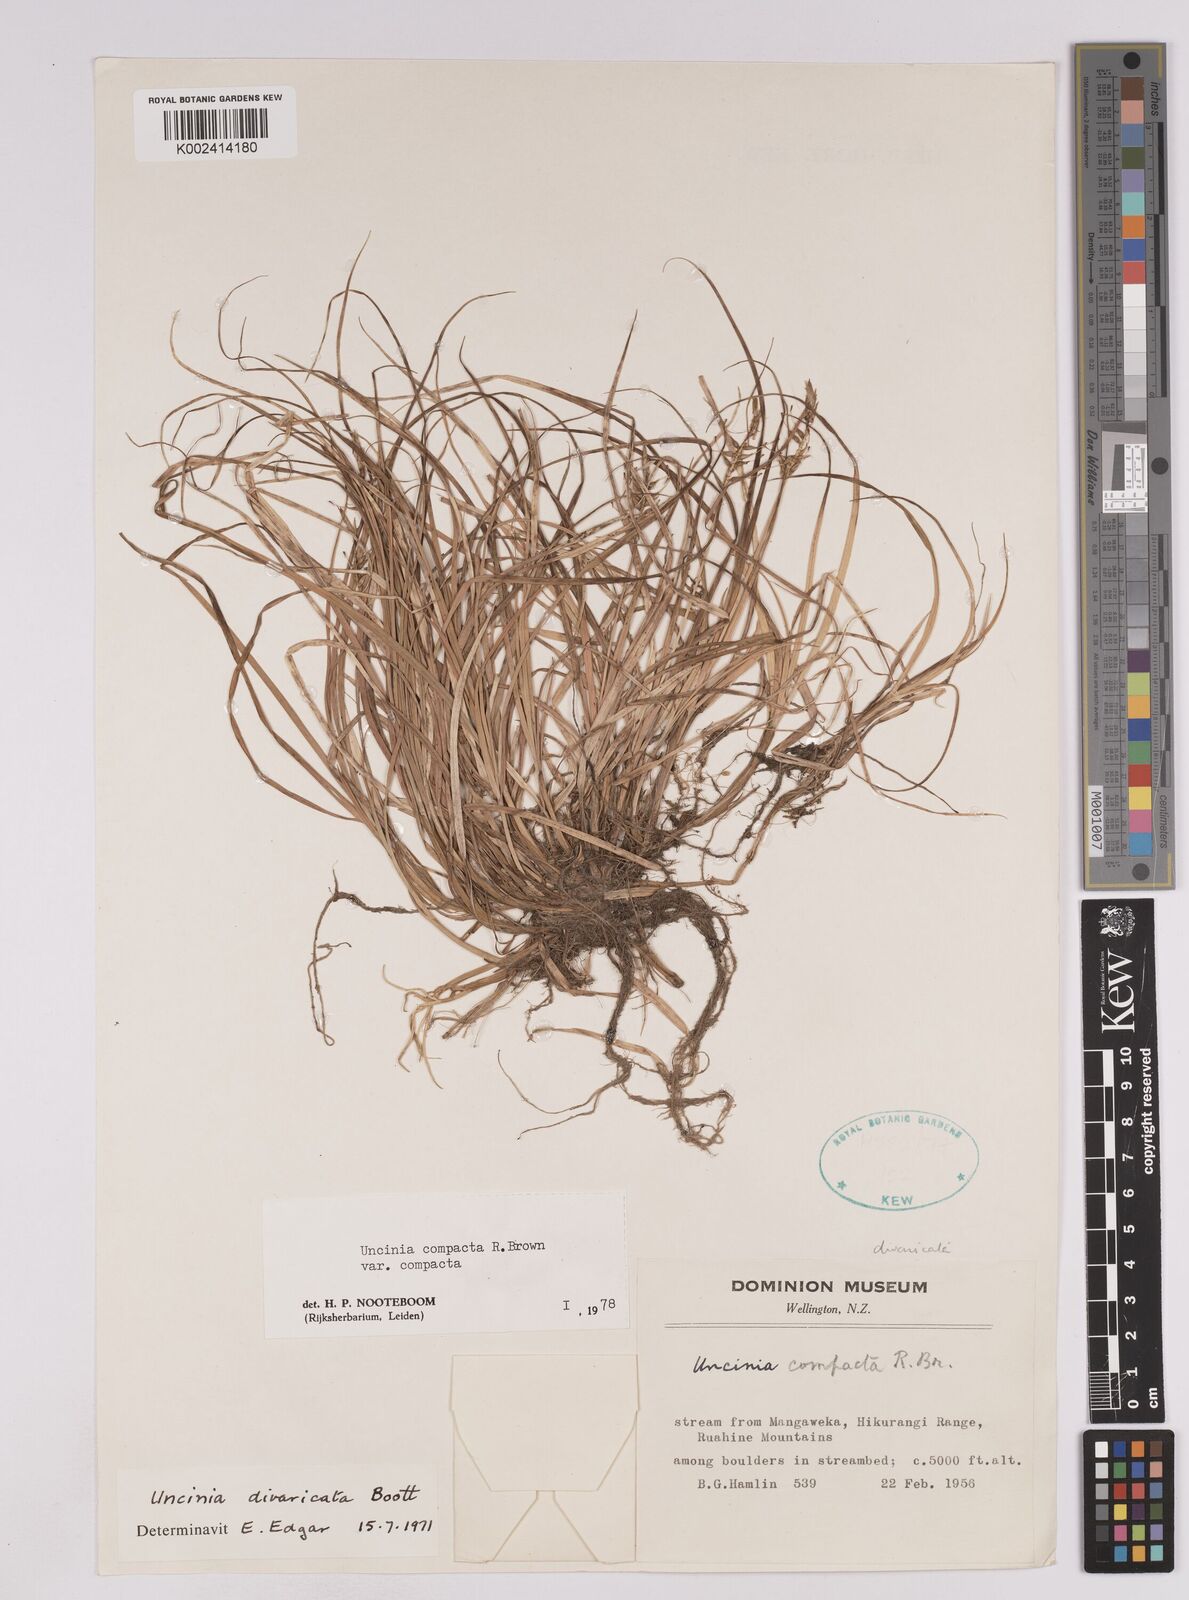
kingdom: Plantae
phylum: Tracheophyta
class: Liliopsida
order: Poales
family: Cyperaceae
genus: Carex
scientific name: Carex austrocompacta
